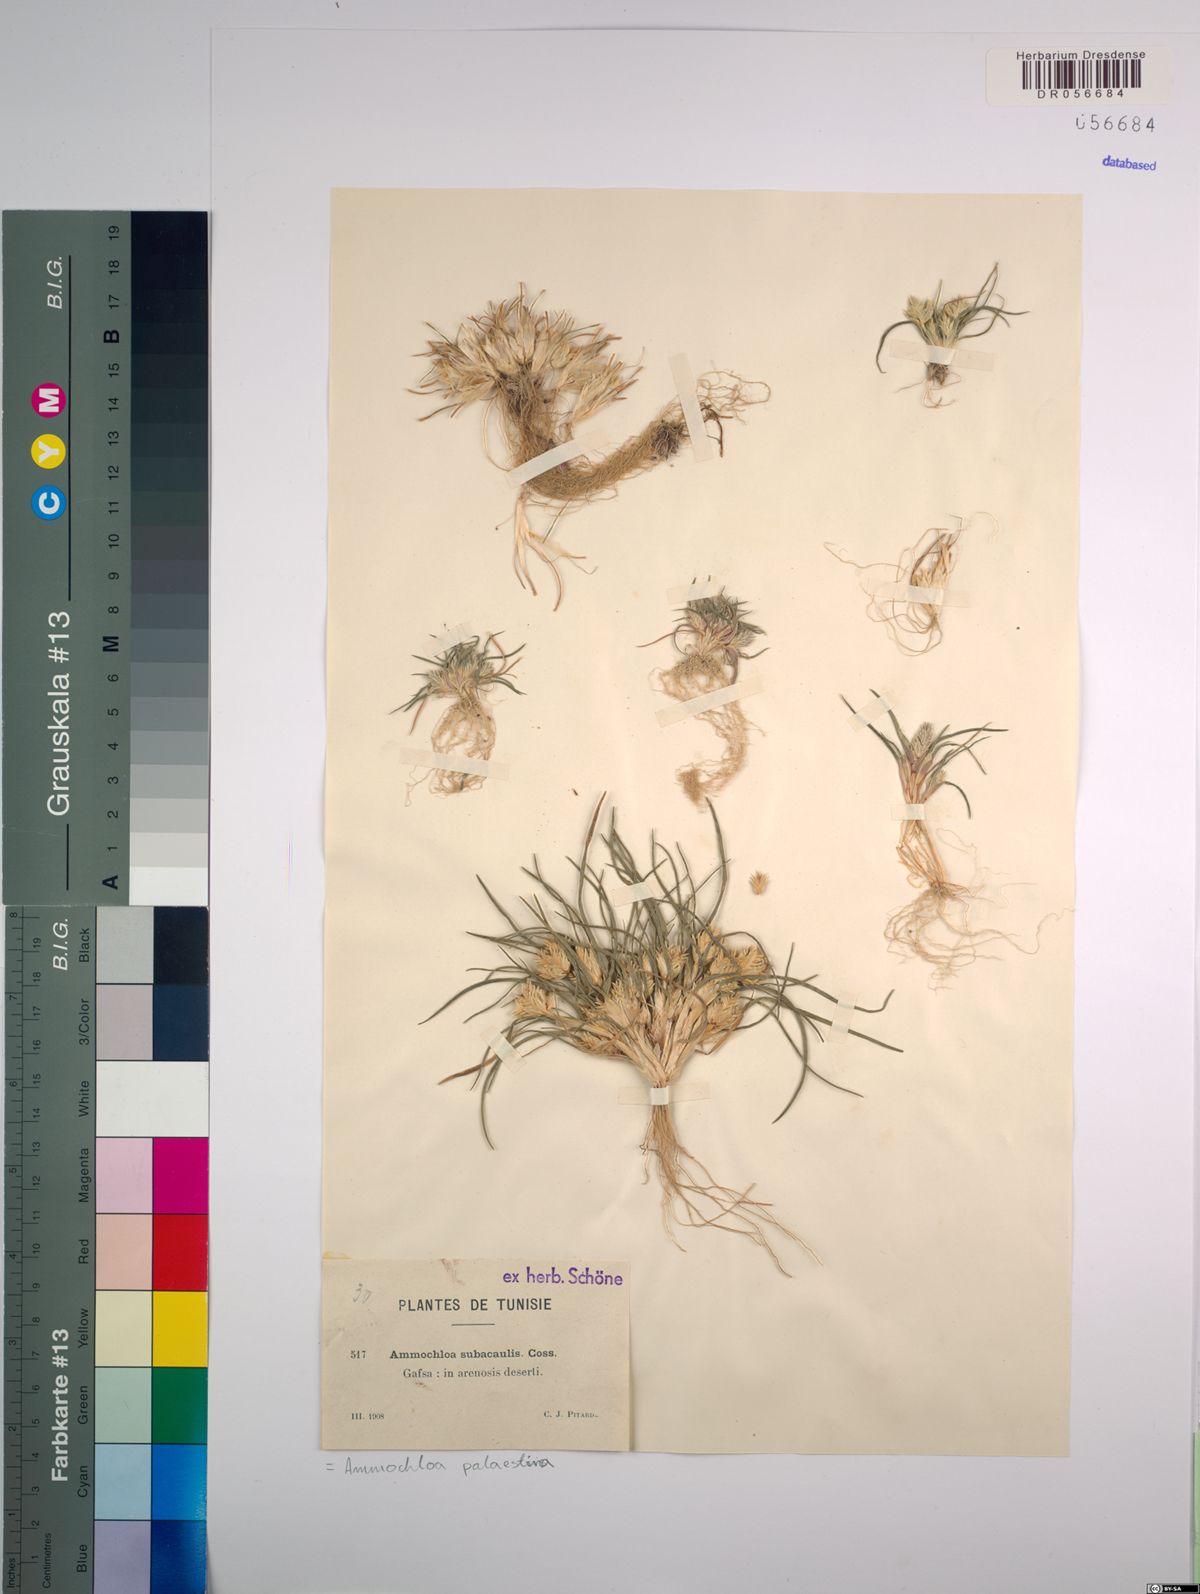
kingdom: Plantae
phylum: Tracheophyta
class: Liliopsida
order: Poales
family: Poaceae
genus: Ammochloa
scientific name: Ammochloa palaestina
